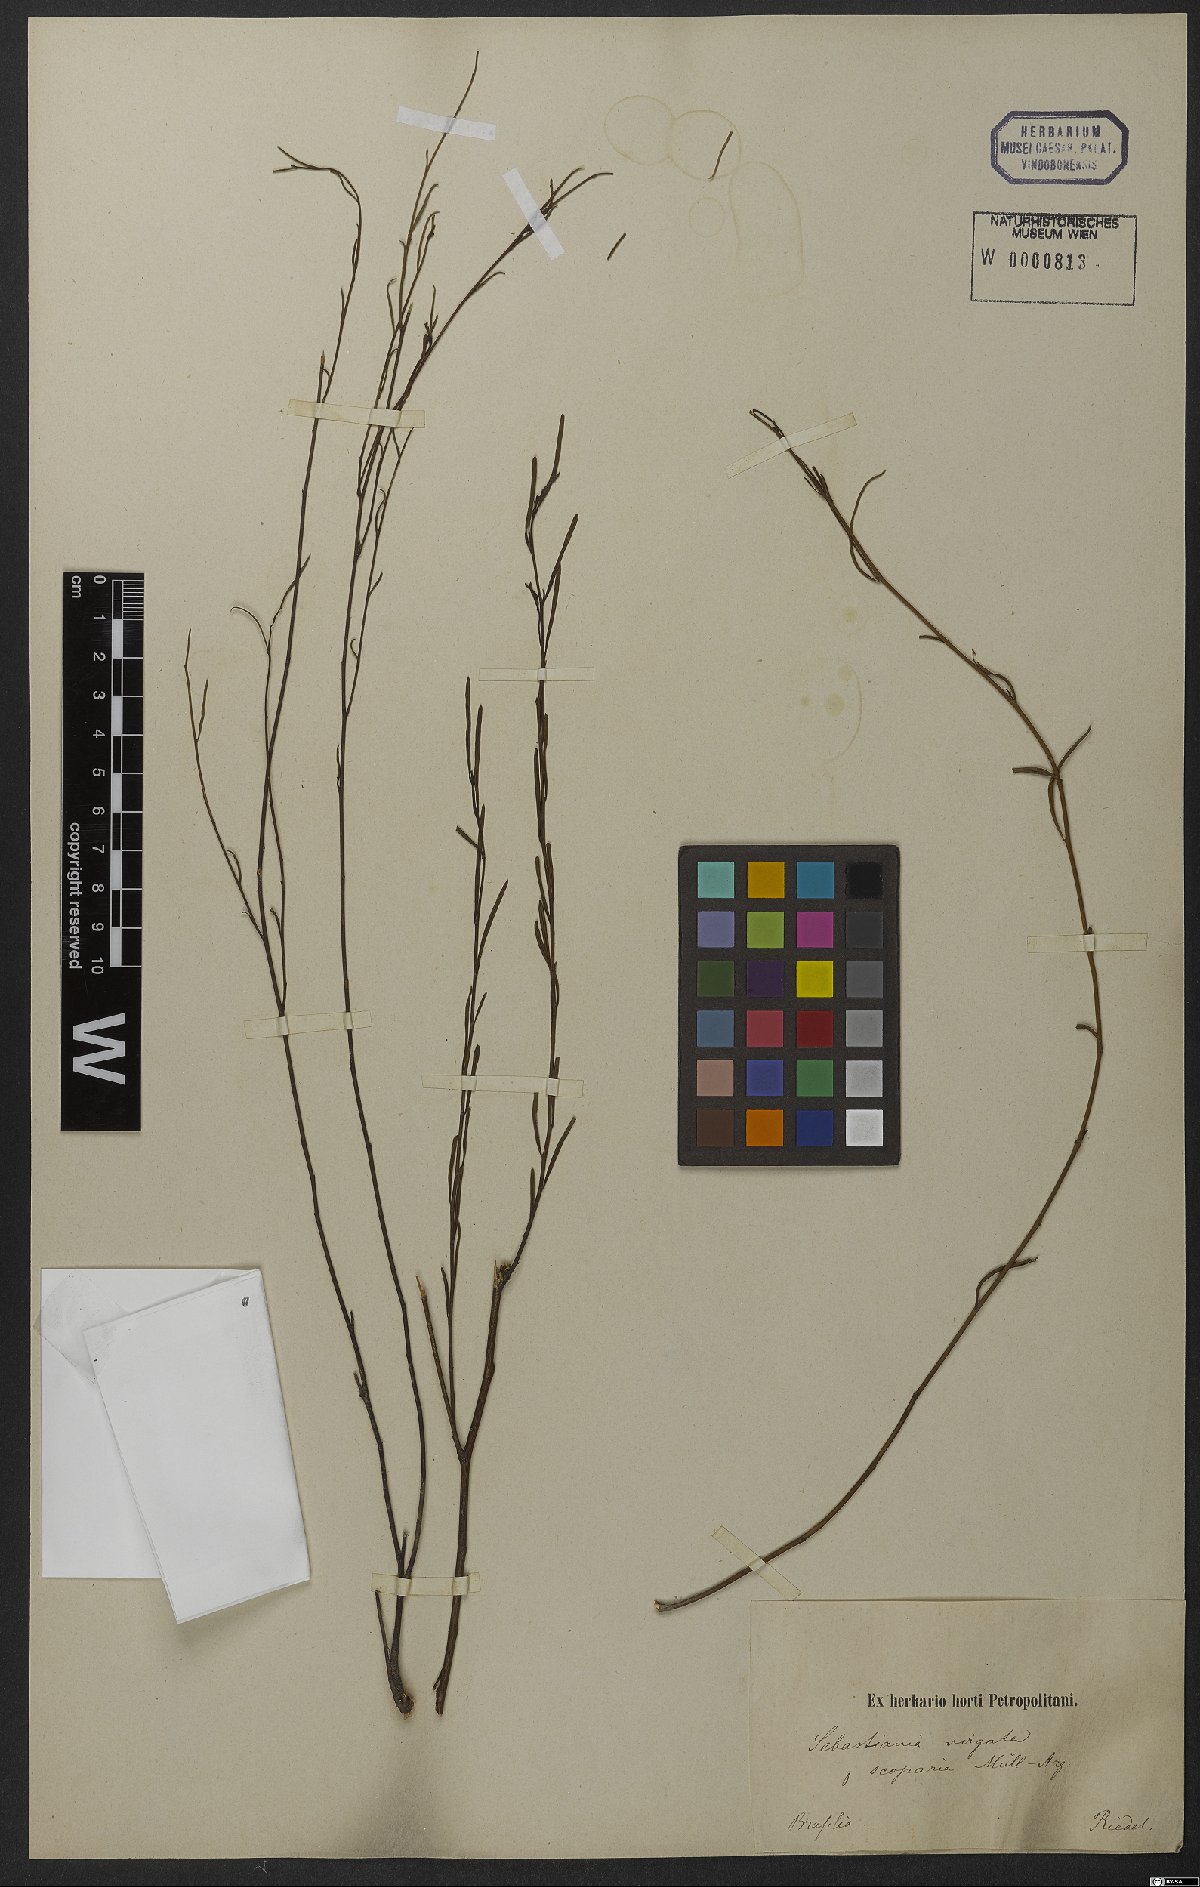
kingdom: Plantae
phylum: Tracheophyta
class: Magnoliopsida
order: Malpighiales
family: Euphorbiaceae
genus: Microstachys
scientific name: Microstachys bidentata
